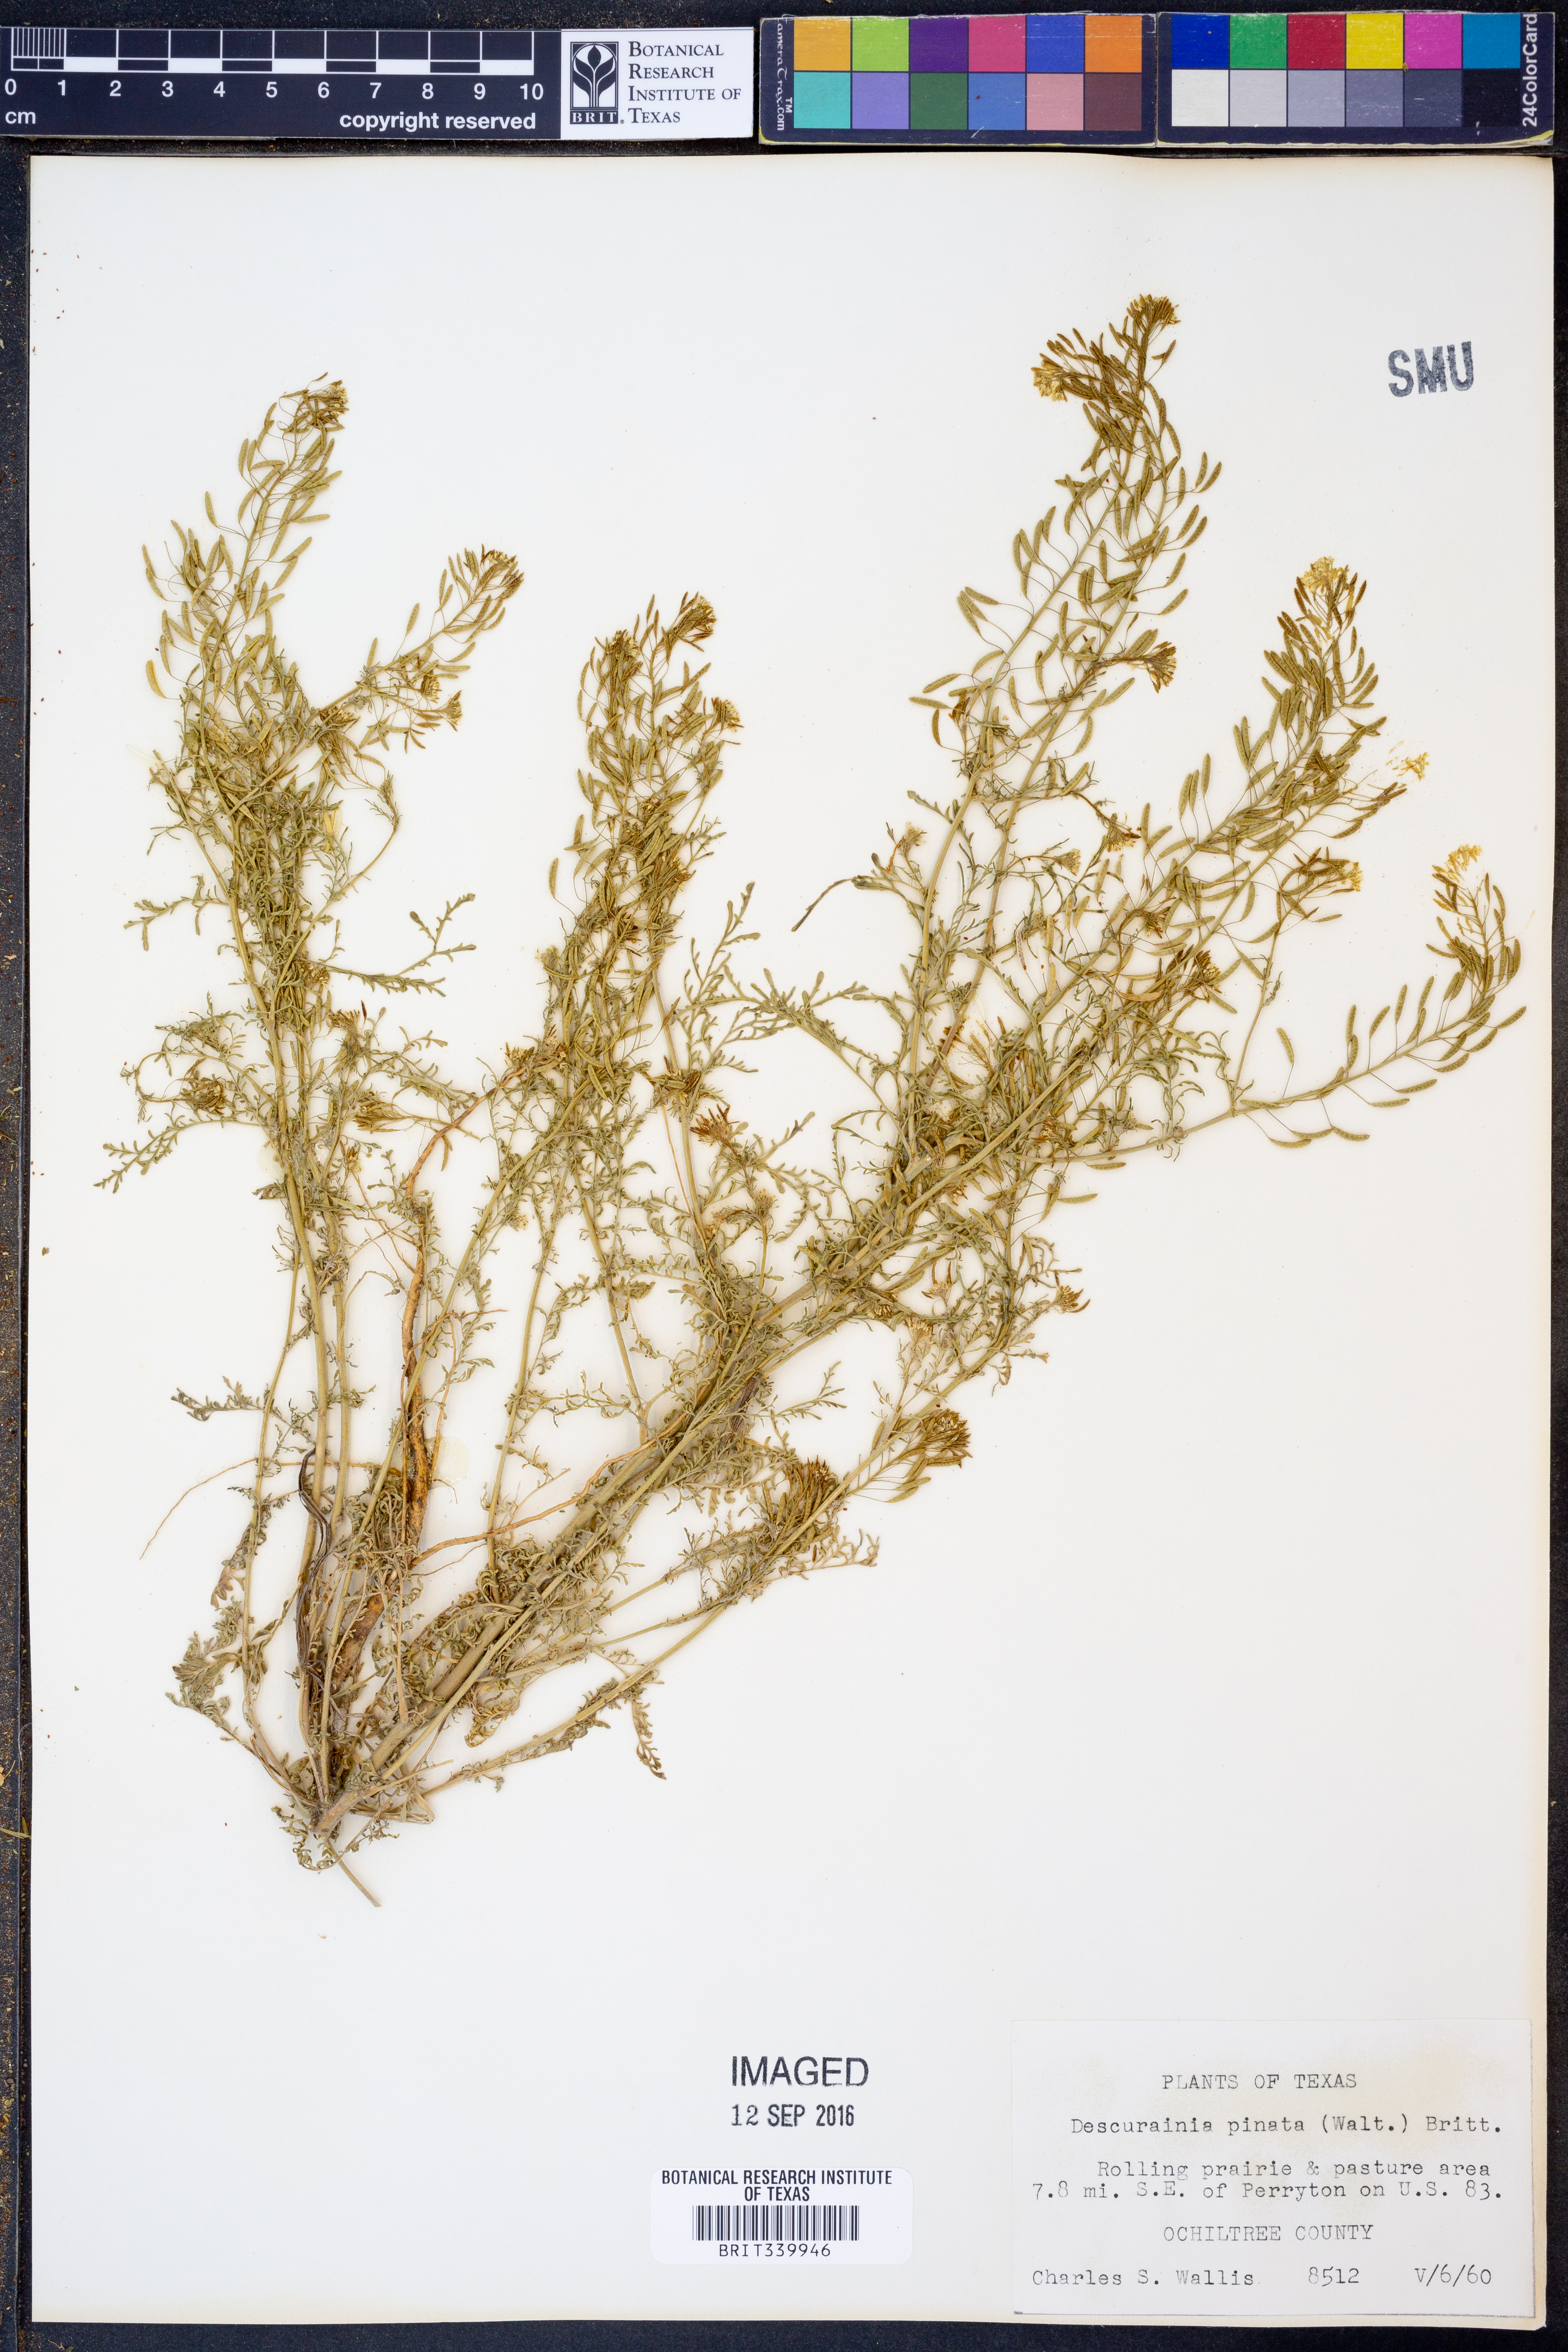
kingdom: Plantae
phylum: Tracheophyta
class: Magnoliopsida
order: Brassicales
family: Brassicaceae
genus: Descurainia
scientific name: Descurainia pinnata
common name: Western tansy mustard
